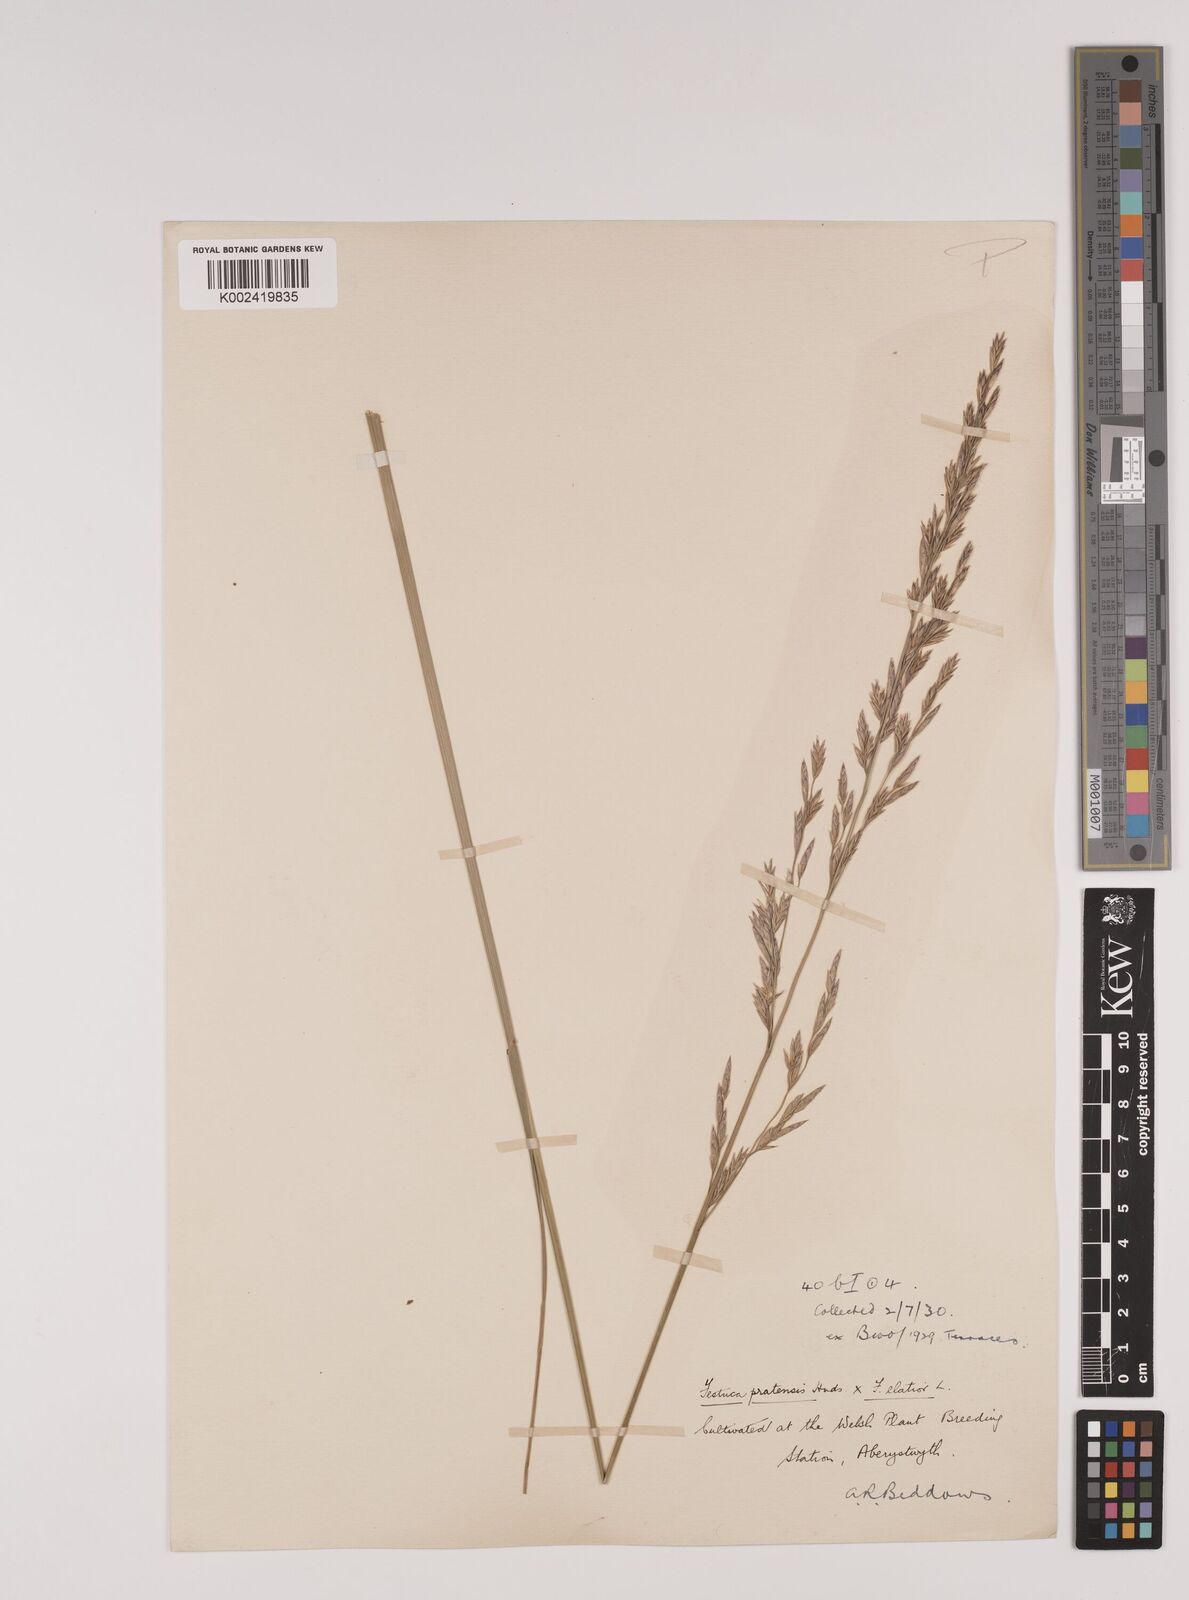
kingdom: Plantae
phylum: Tracheophyta
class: Liliopsida
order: Poales
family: Poaceae
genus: Festuca
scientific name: Festuca rubra
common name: Red fescue
